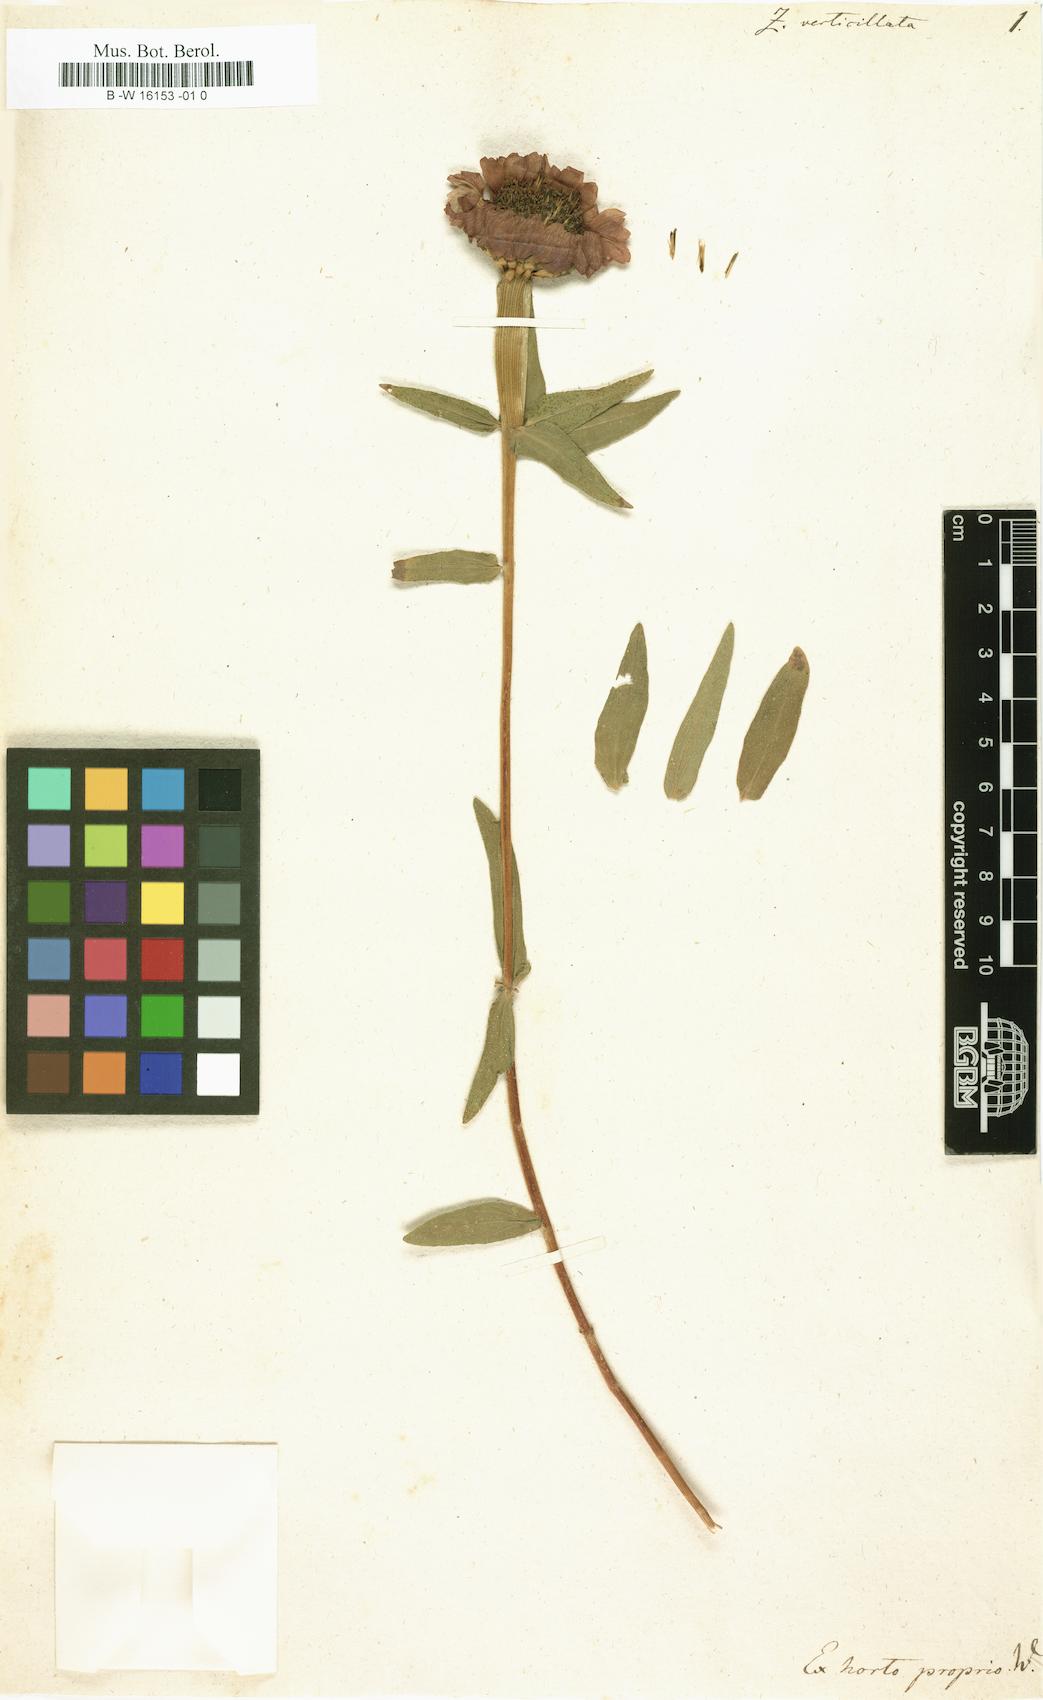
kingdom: Plantae
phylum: Tracheophyta
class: Magnoliopsida
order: Asterales
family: Asteraceae
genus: Zinnia
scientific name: Zinnia peruviana
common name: Peruvian zinnia
